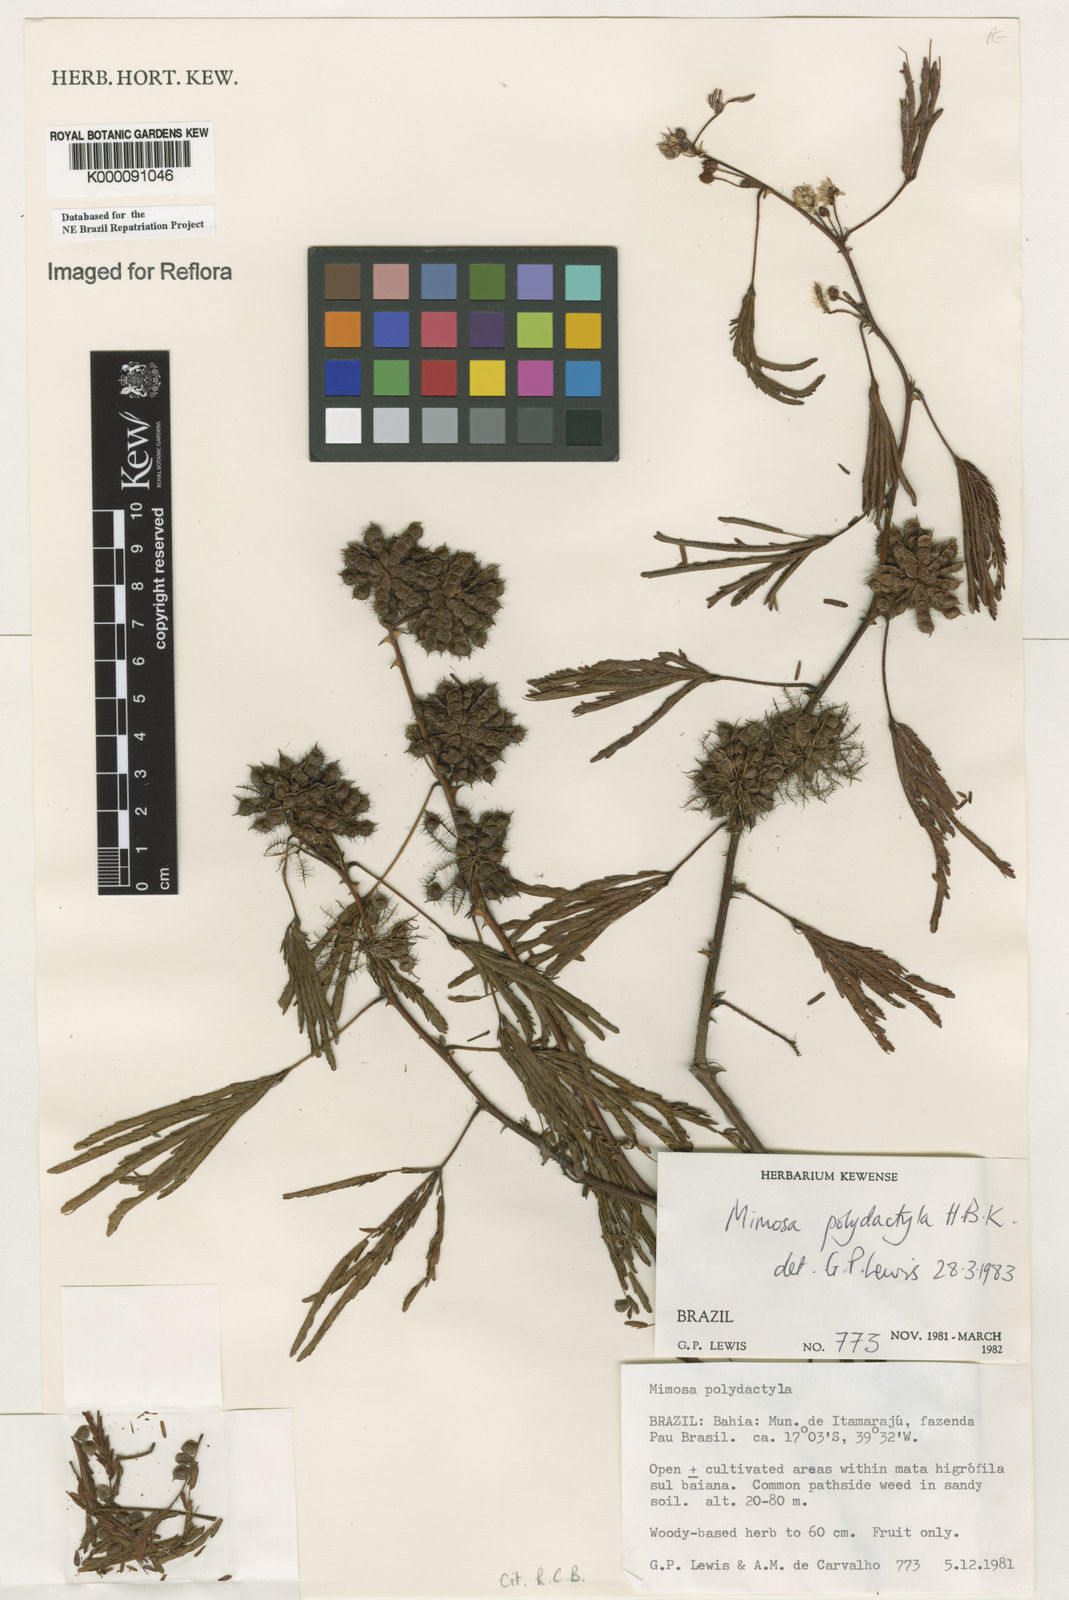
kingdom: Plantae
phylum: Tracheophyta
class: Magnoliopsida
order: Fabales
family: Fabaceae
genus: Mimosa
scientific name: Mimosa
